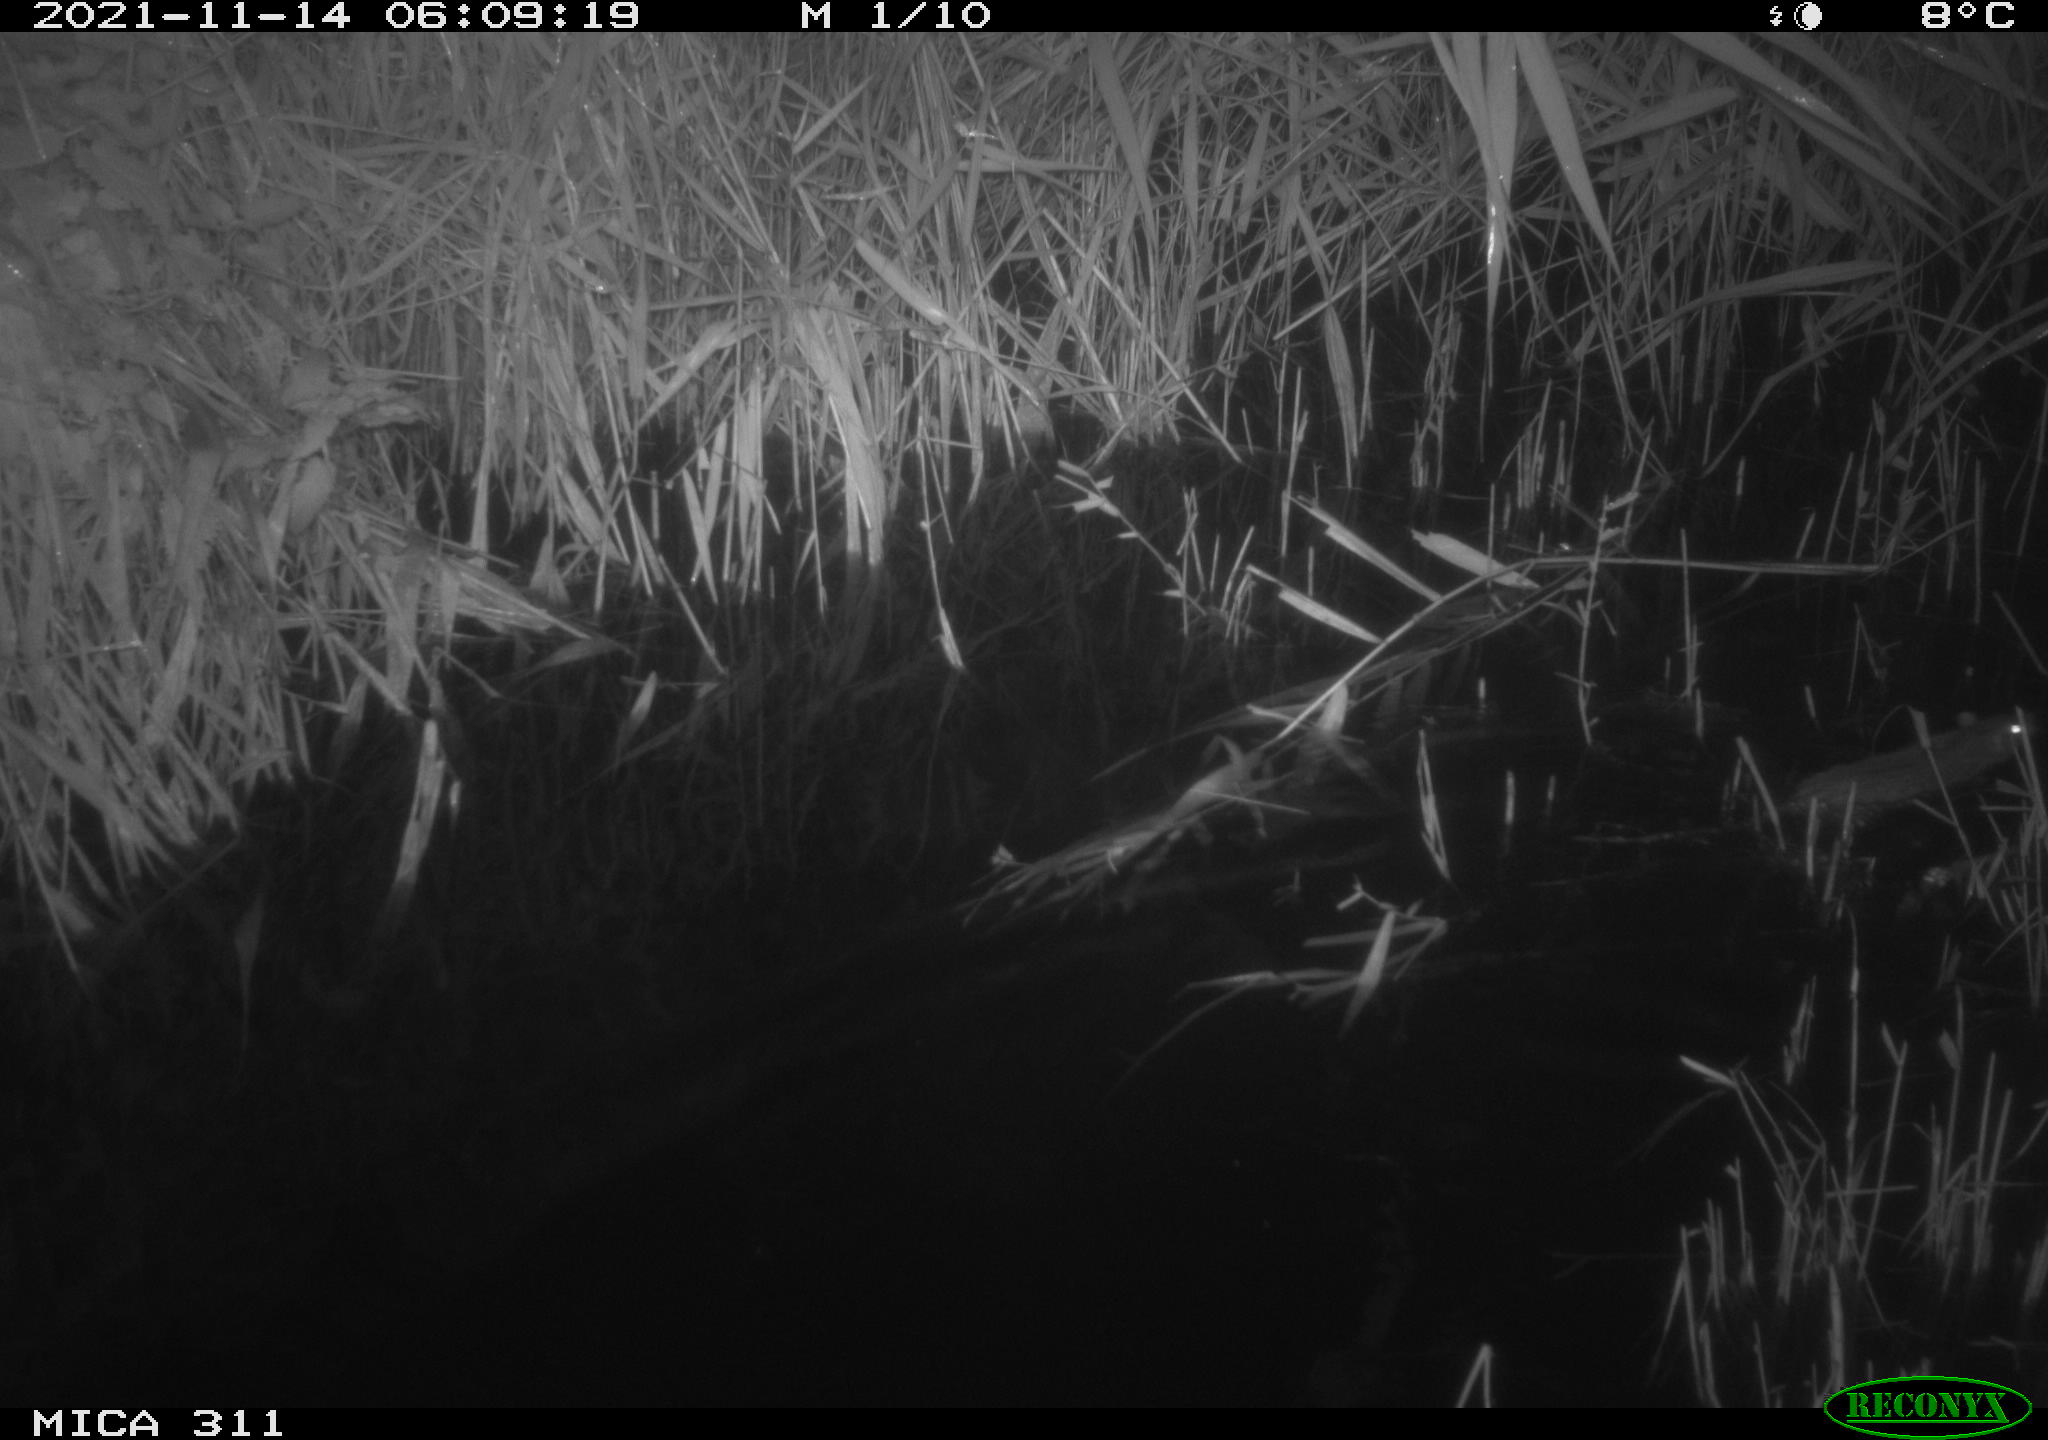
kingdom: Animalia
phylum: Chordata
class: Mammalia
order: Rodentia
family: Muridae
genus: Rattus
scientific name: Rattus norvegicus
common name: Brown rat
